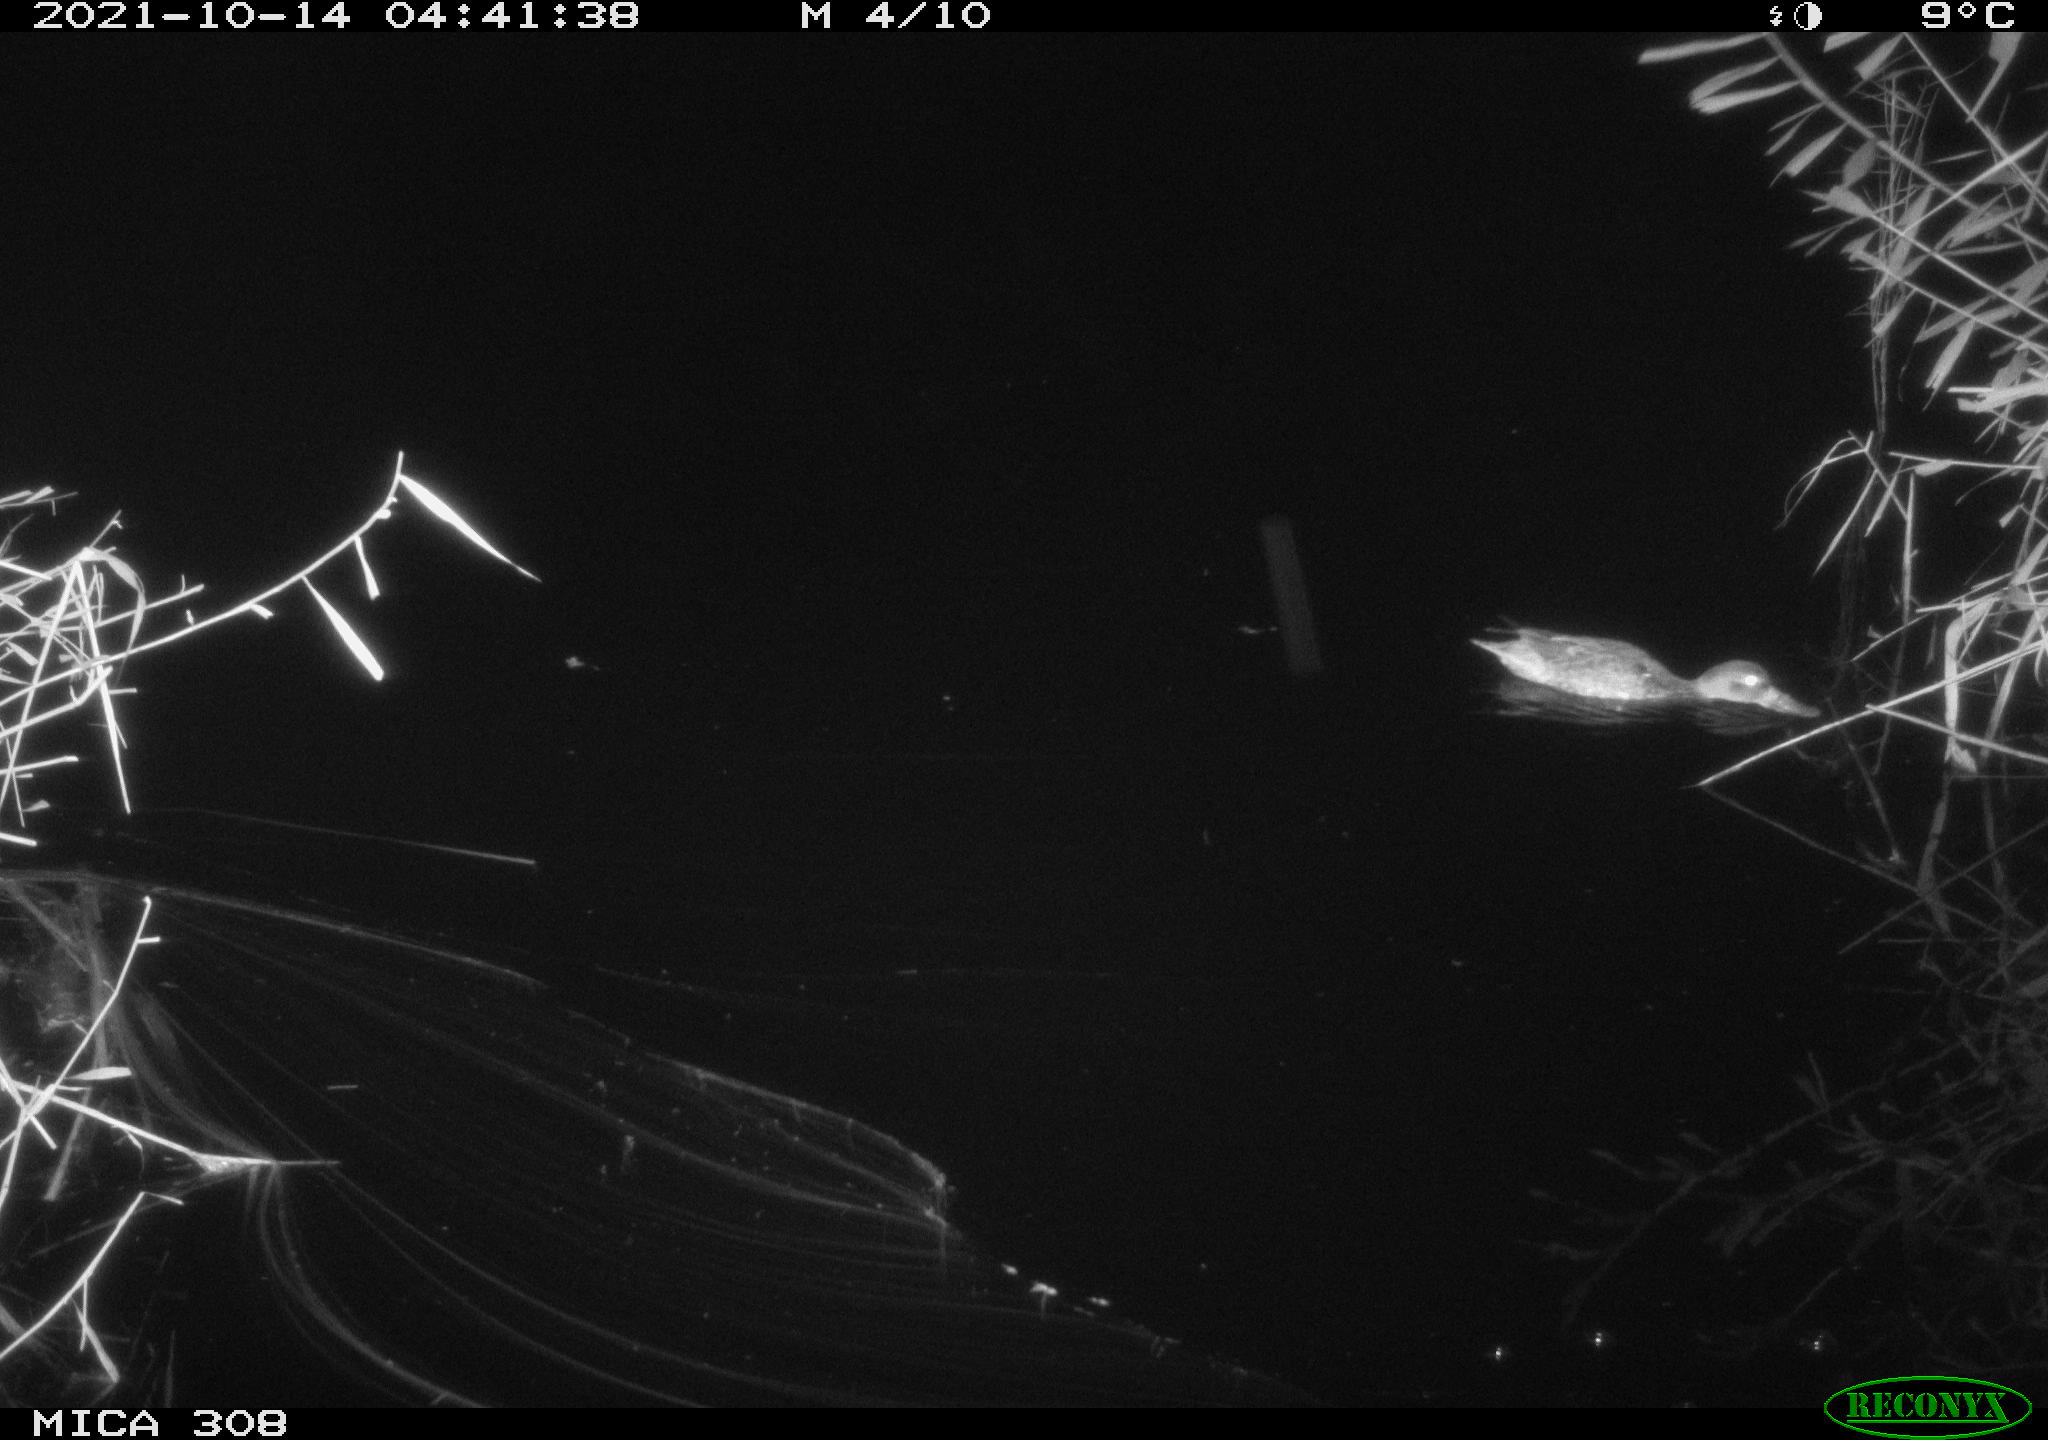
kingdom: Animalia
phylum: Chordata
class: Aves
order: Anseriformes
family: Anatidae
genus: Spatula
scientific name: Spatula clypeata
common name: Northern shoveler
